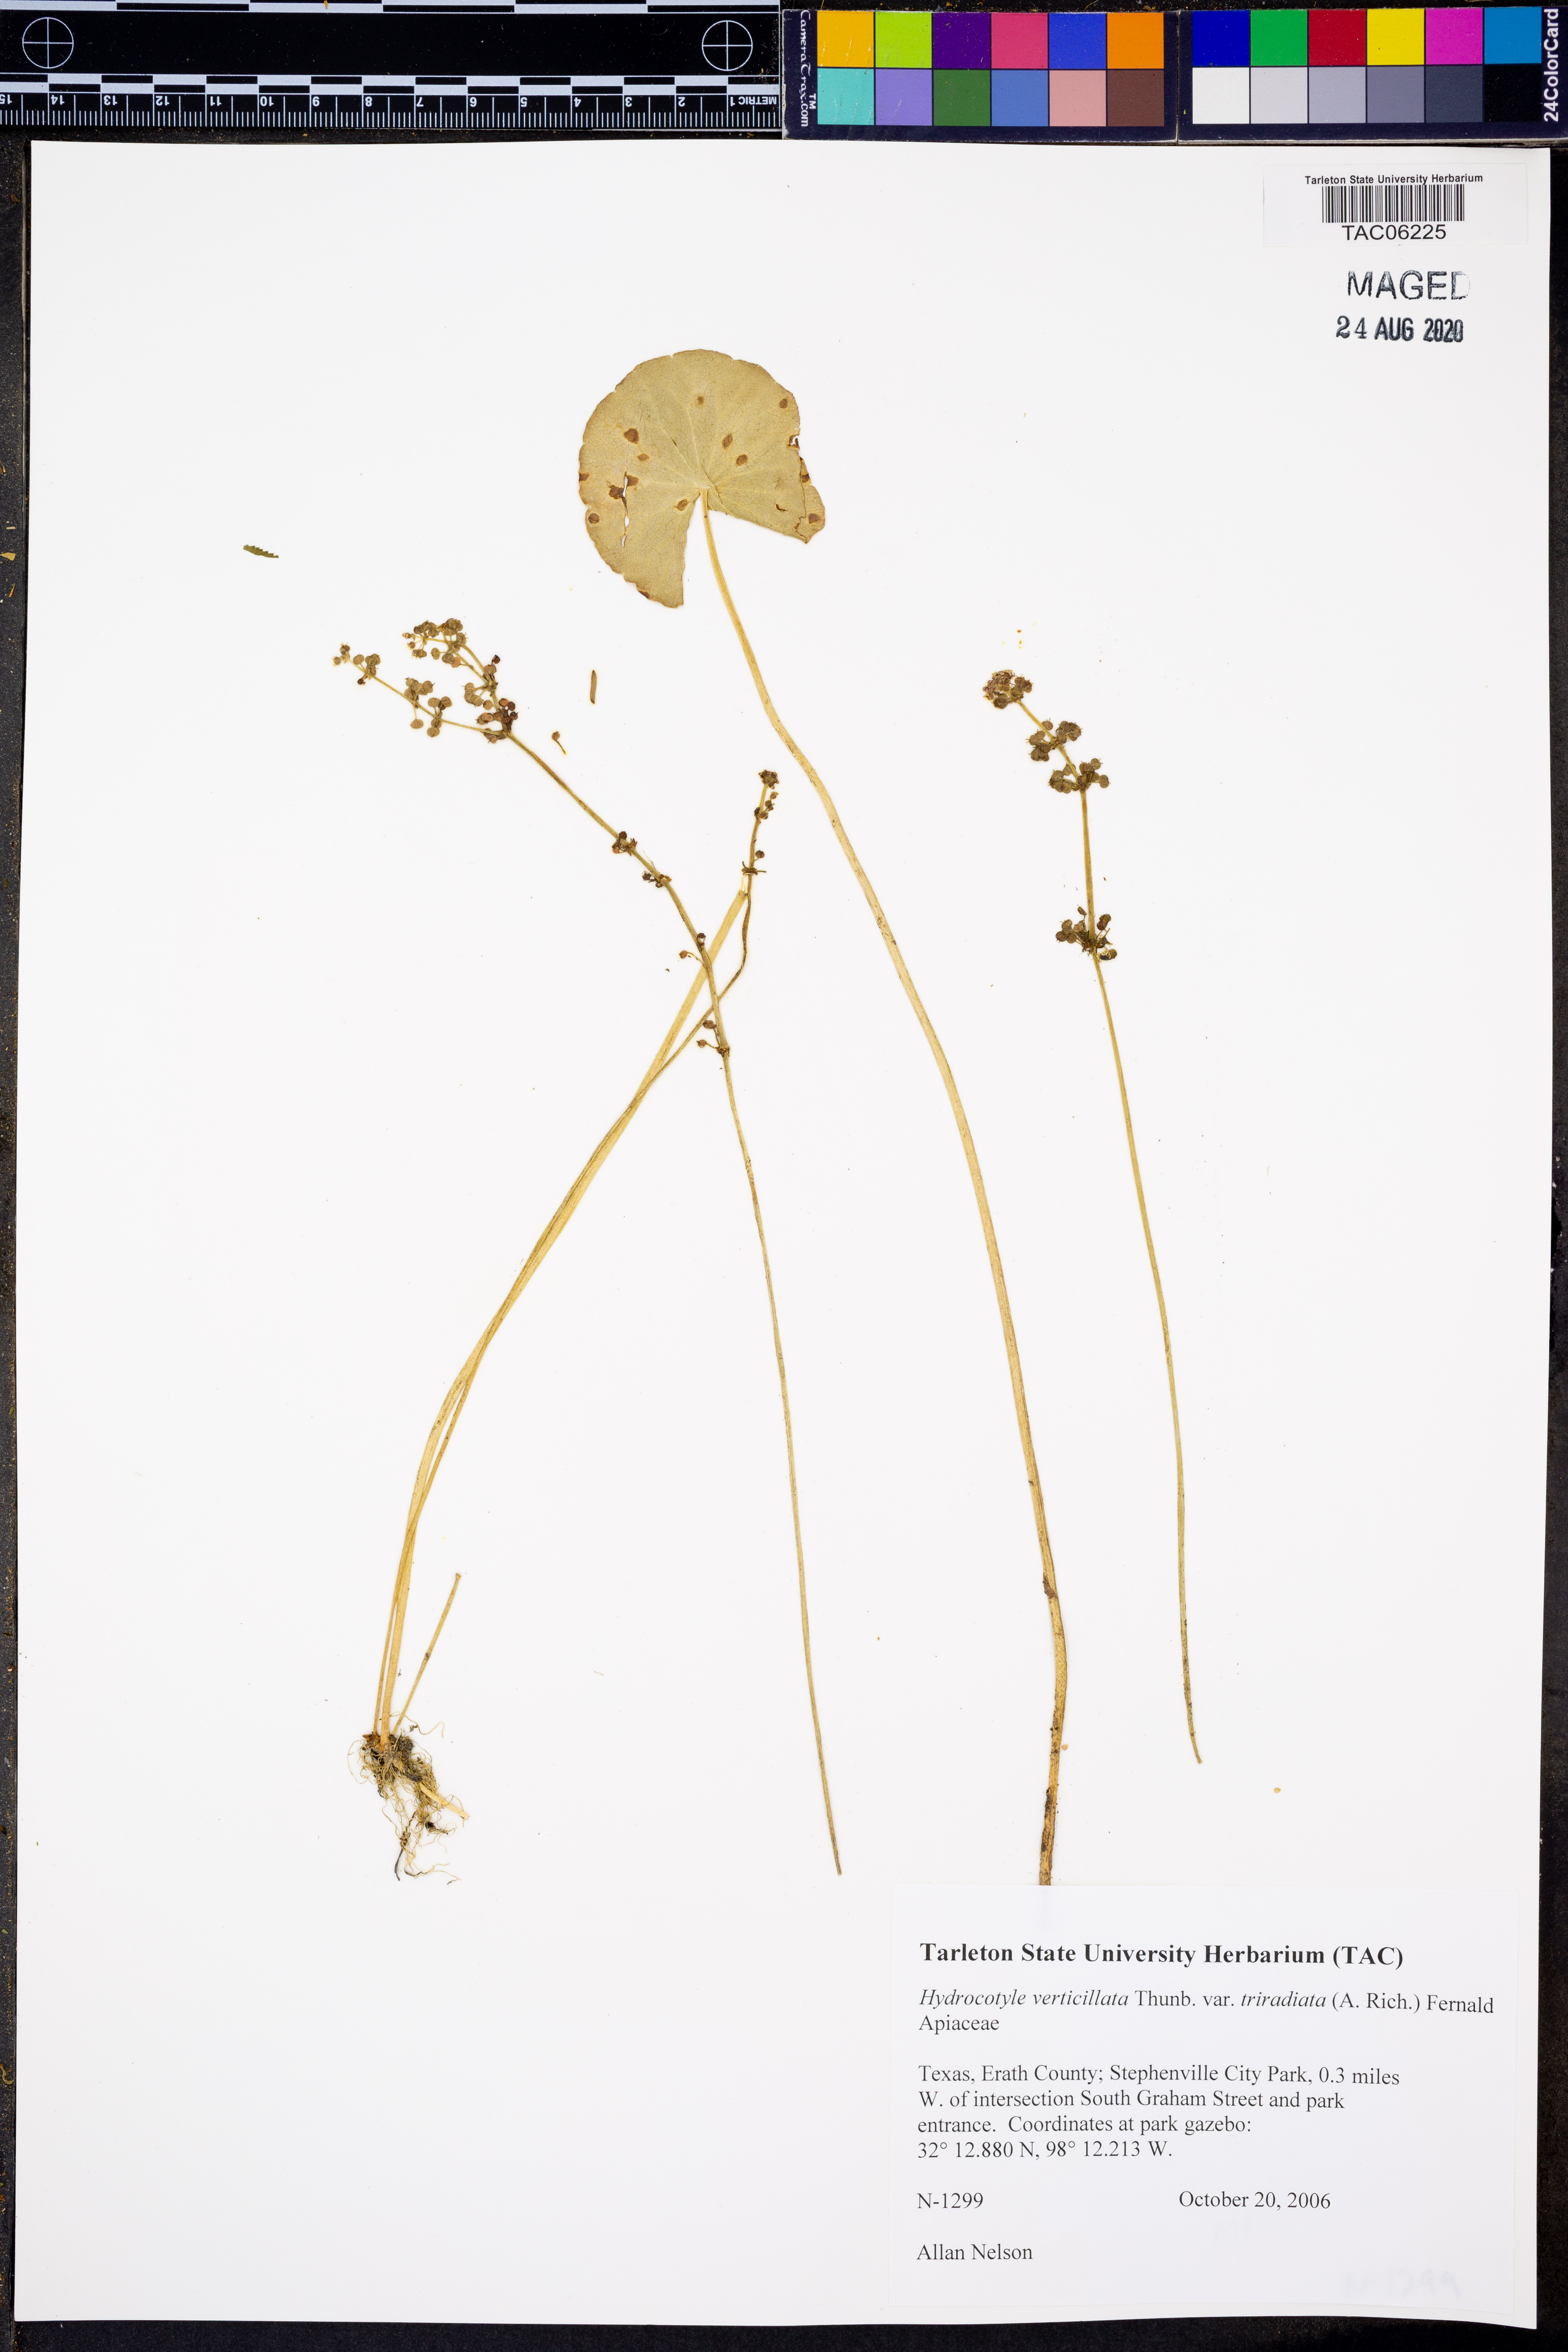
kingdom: Plantae
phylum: Tracheophyta
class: Magnoliopsida
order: Apiales
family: Araliaceae
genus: Hydrocotyle
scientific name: Hydrocotyle bonariensis
